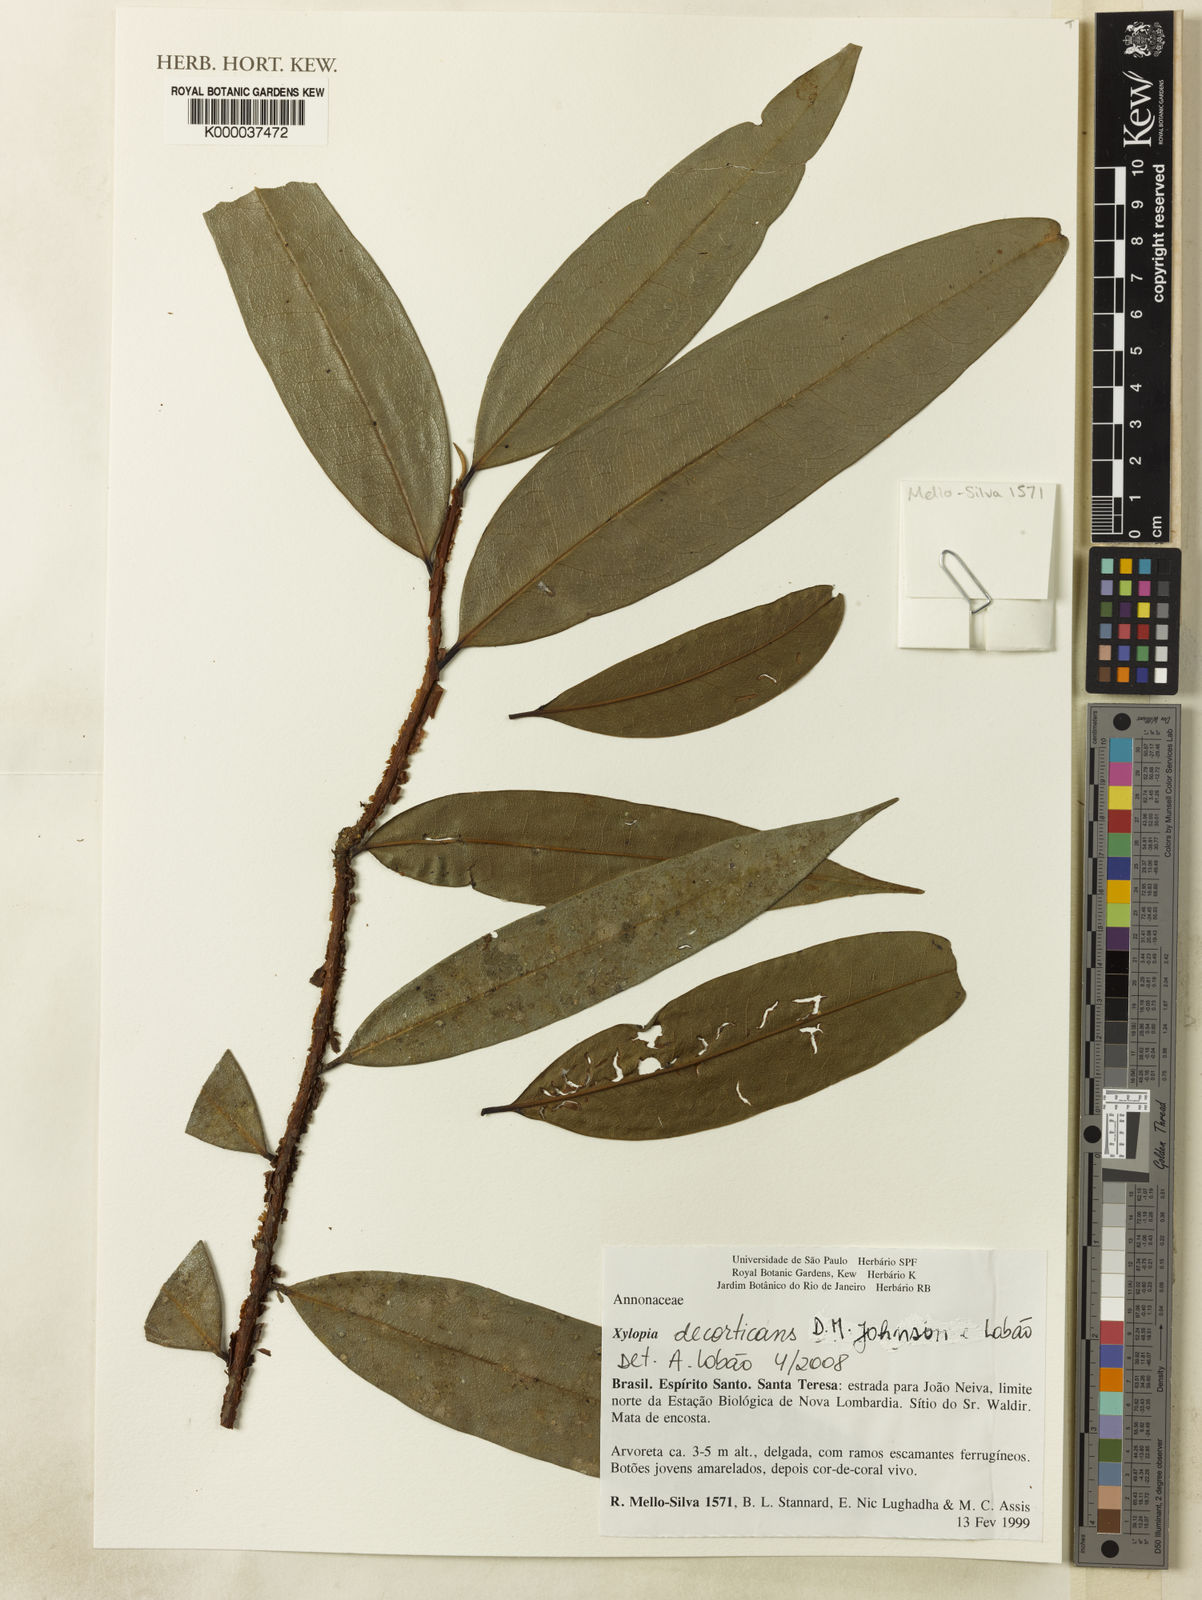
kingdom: Plantae
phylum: Tracheophyta
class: Magnoliopsida
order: Magnoliales
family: Annonaceae
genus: Xylopia
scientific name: Xylopia decorticans
